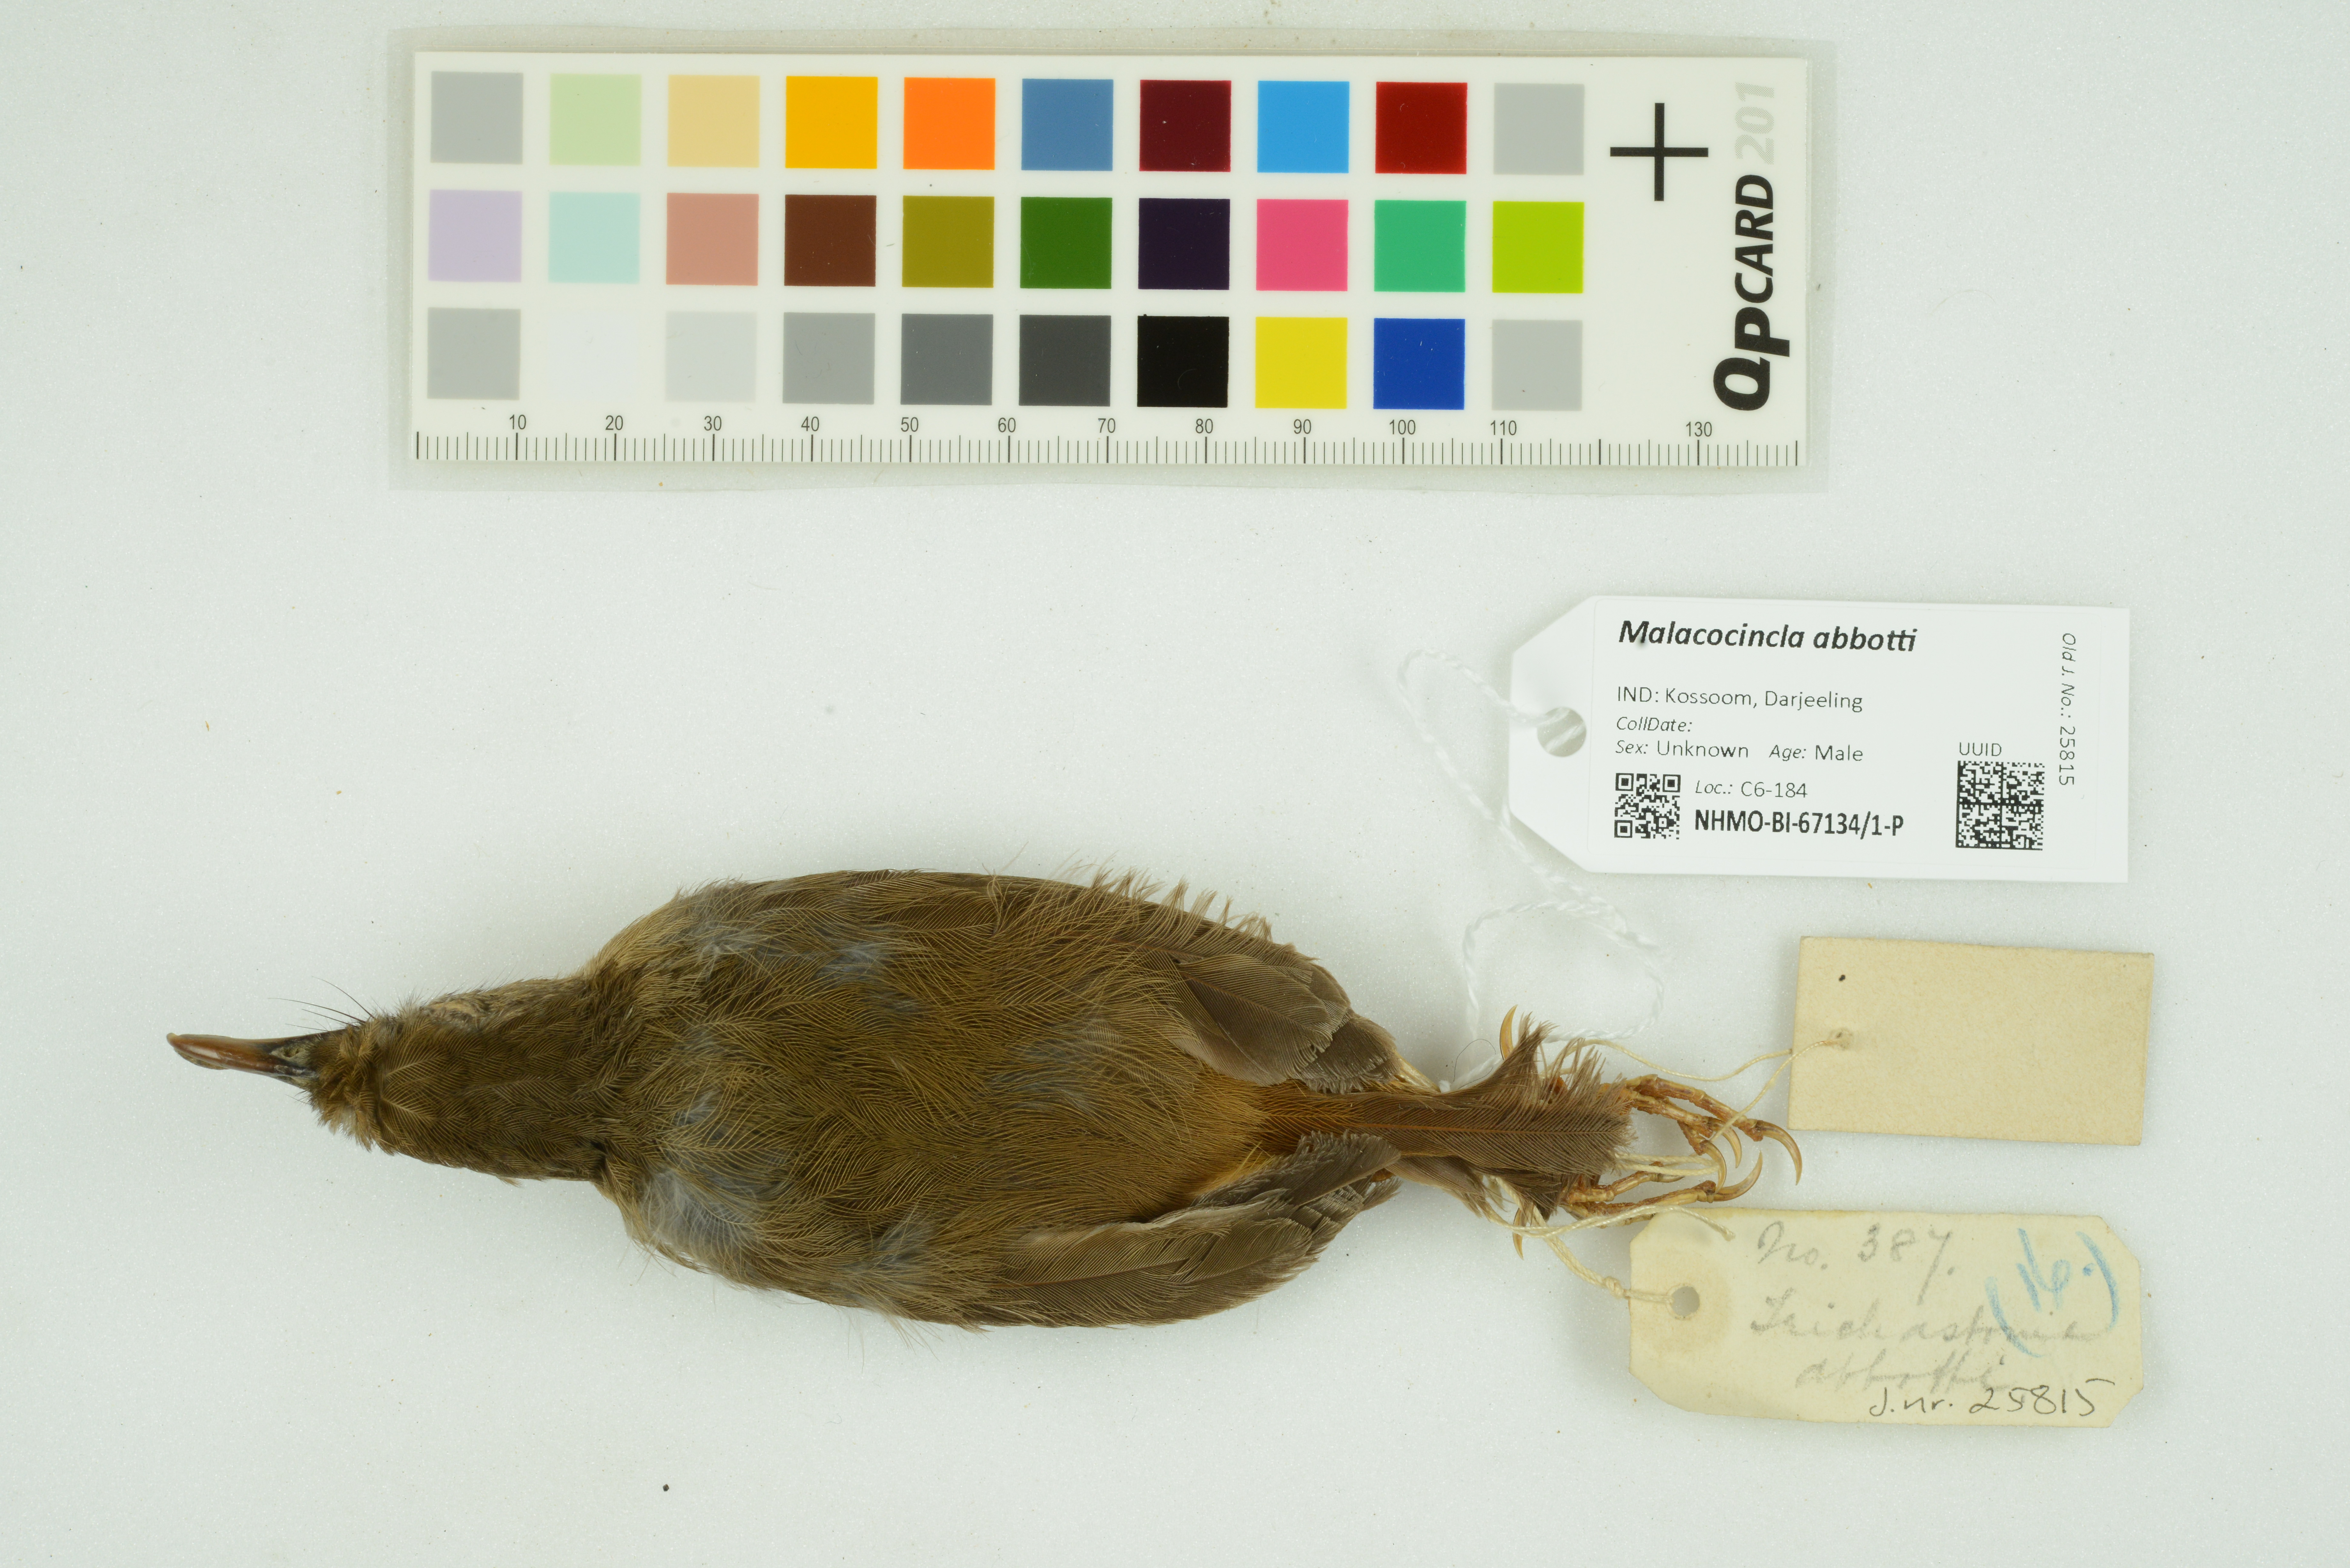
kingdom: Animalia
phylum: Chordata
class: Aves
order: Passeriformes
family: Pellorneidae
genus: Malacocincla
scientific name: Malacocincla abbotti
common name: Abbott's babbler
